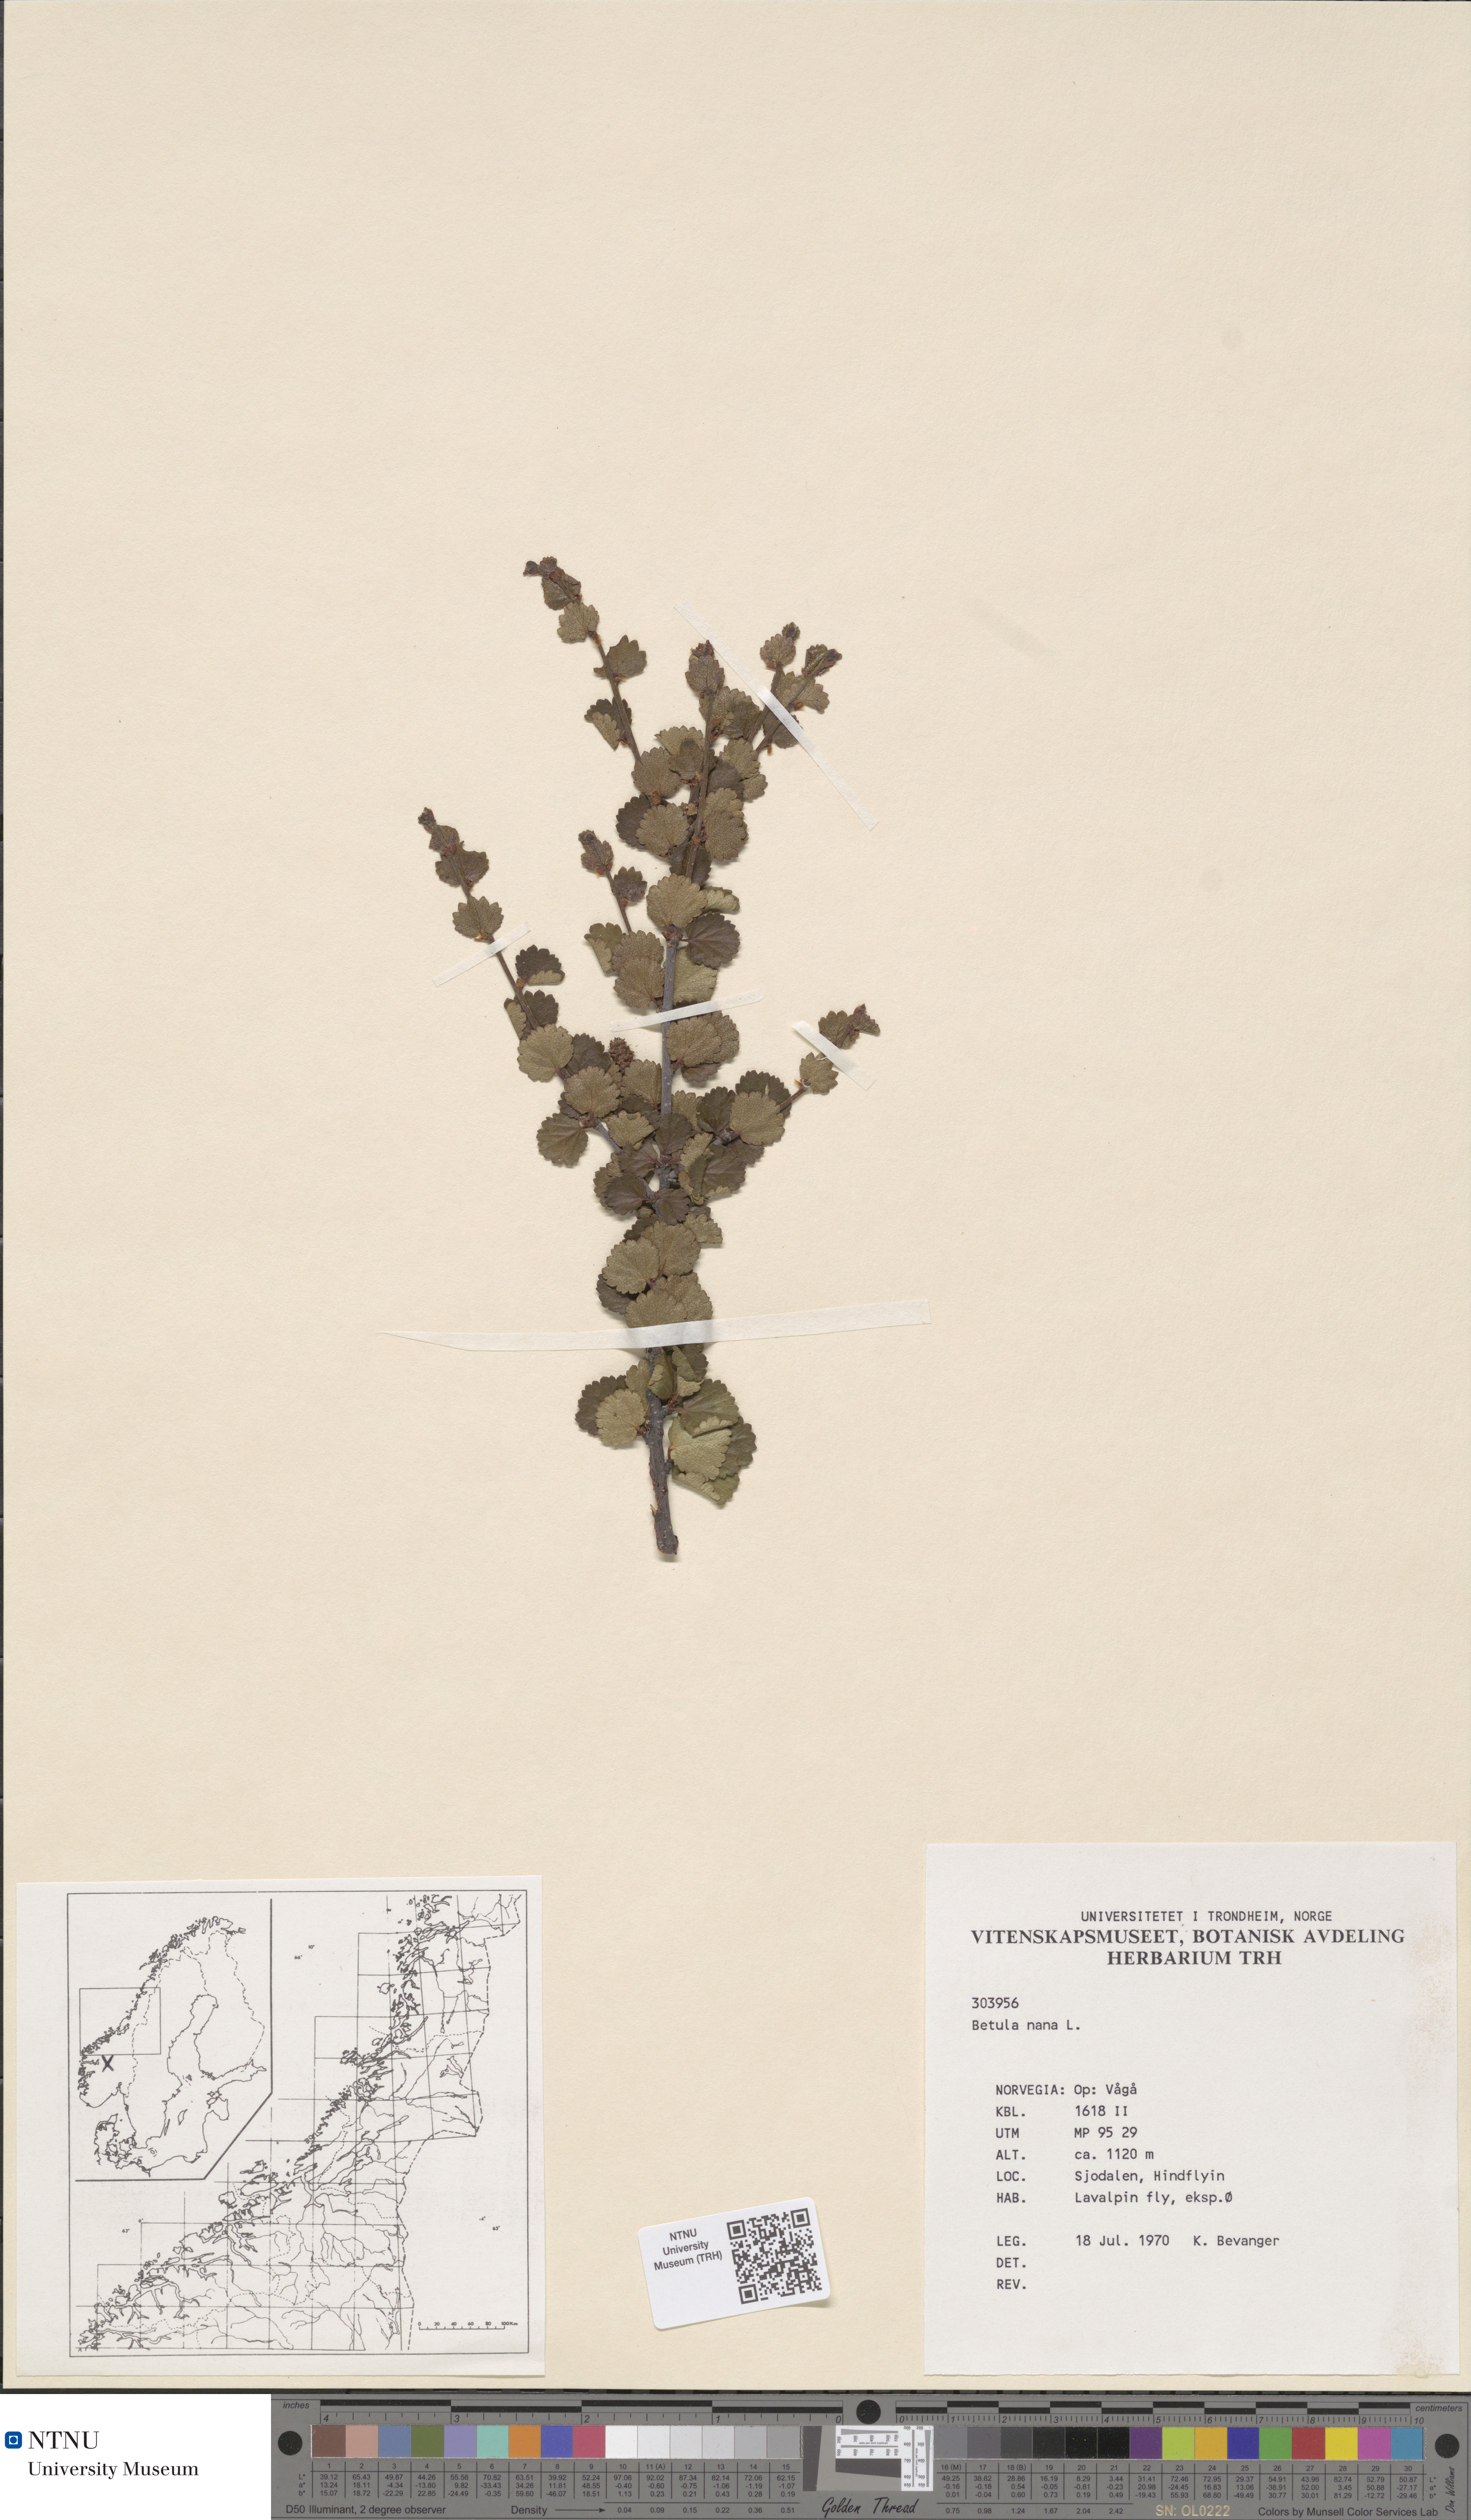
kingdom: Plantae
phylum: Tracheophyta
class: Magnoliopsida
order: Fagales
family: Betulaceae
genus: Betula
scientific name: Betula nana
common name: Arctic dwarf birch
